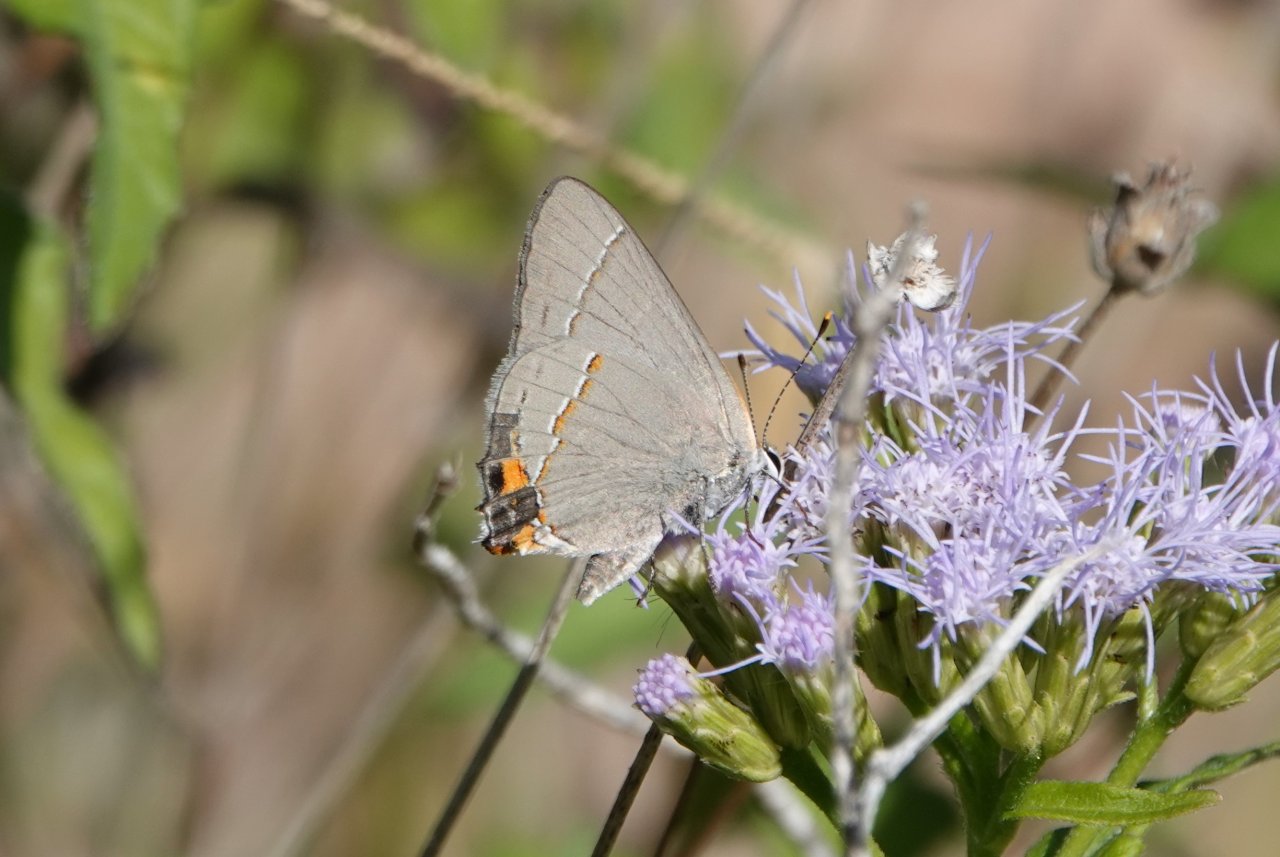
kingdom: Animalia
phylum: Arthropoda
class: Insecta
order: Lepidoptera
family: Lycaenidae
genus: Strymon
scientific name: Strymon melinus
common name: Gray Hairstreak
